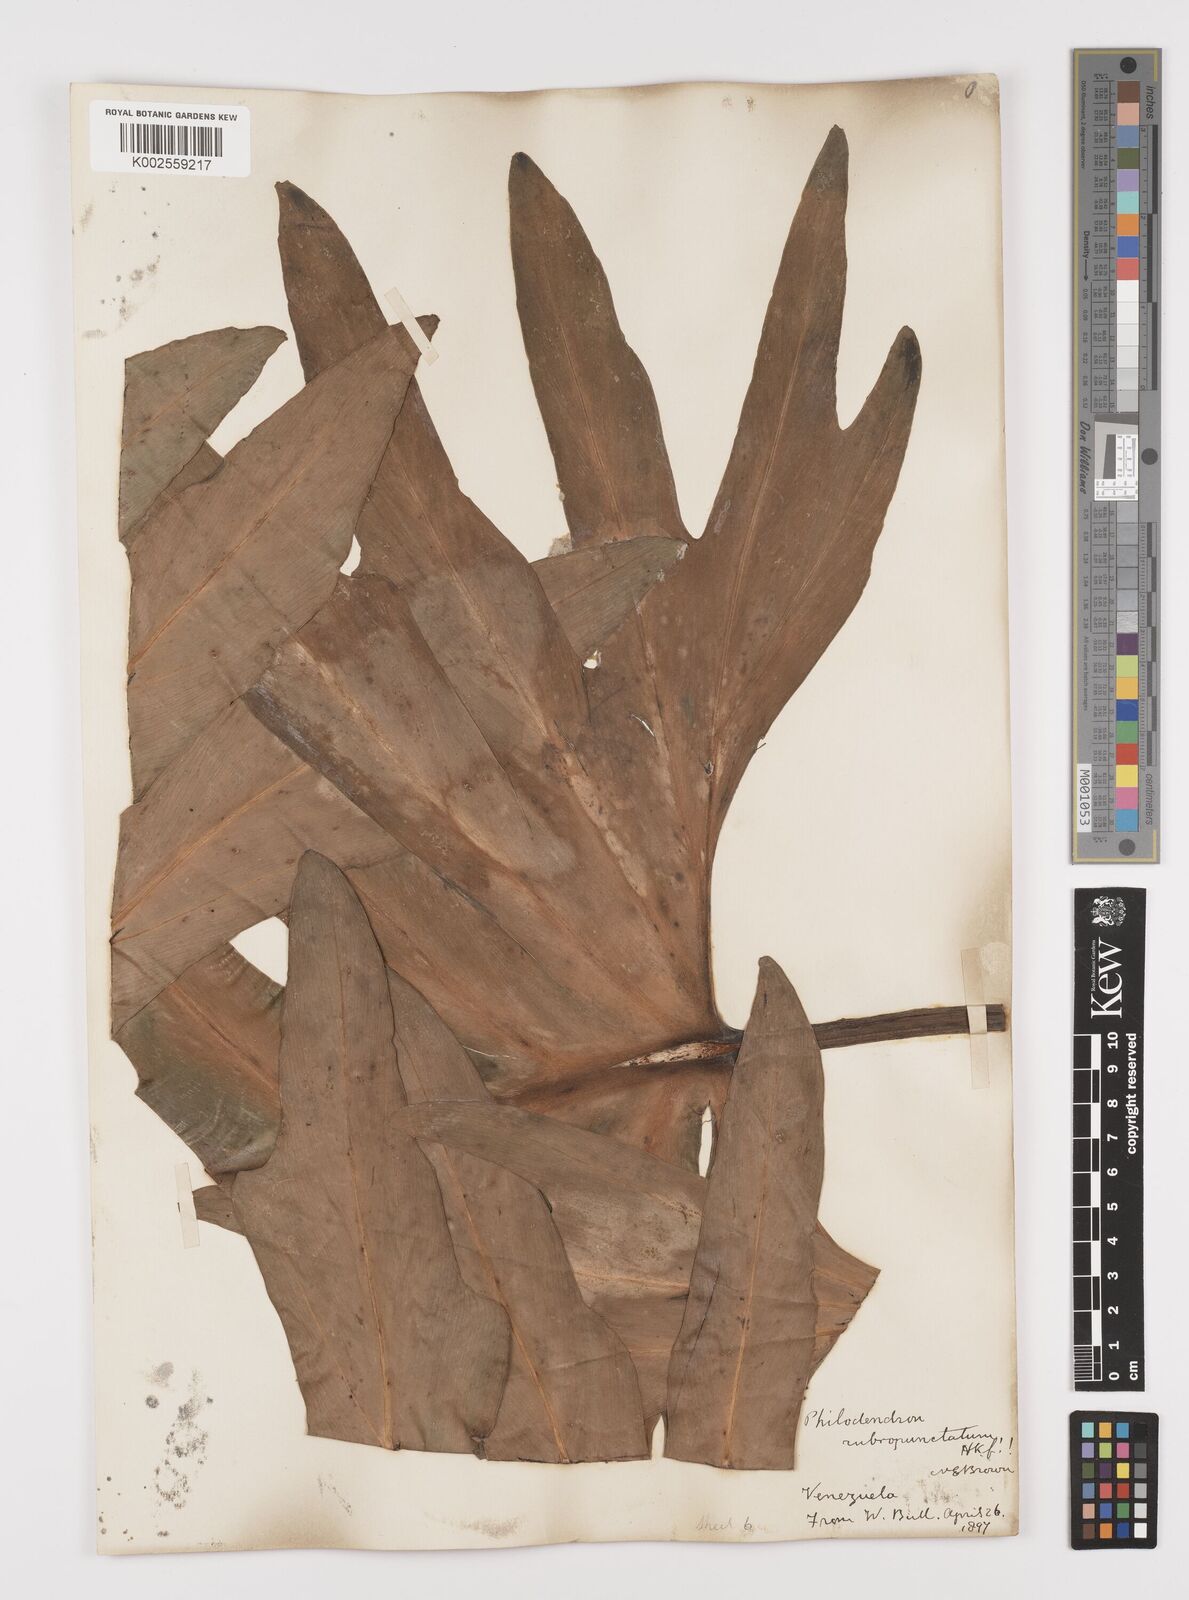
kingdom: Plantae
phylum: Tracheophyta
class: Liliopsida
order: Alismatales
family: Araceae
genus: Philodendron
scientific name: Philodendron pinnatifidum
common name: Comb-leaf philodendron
